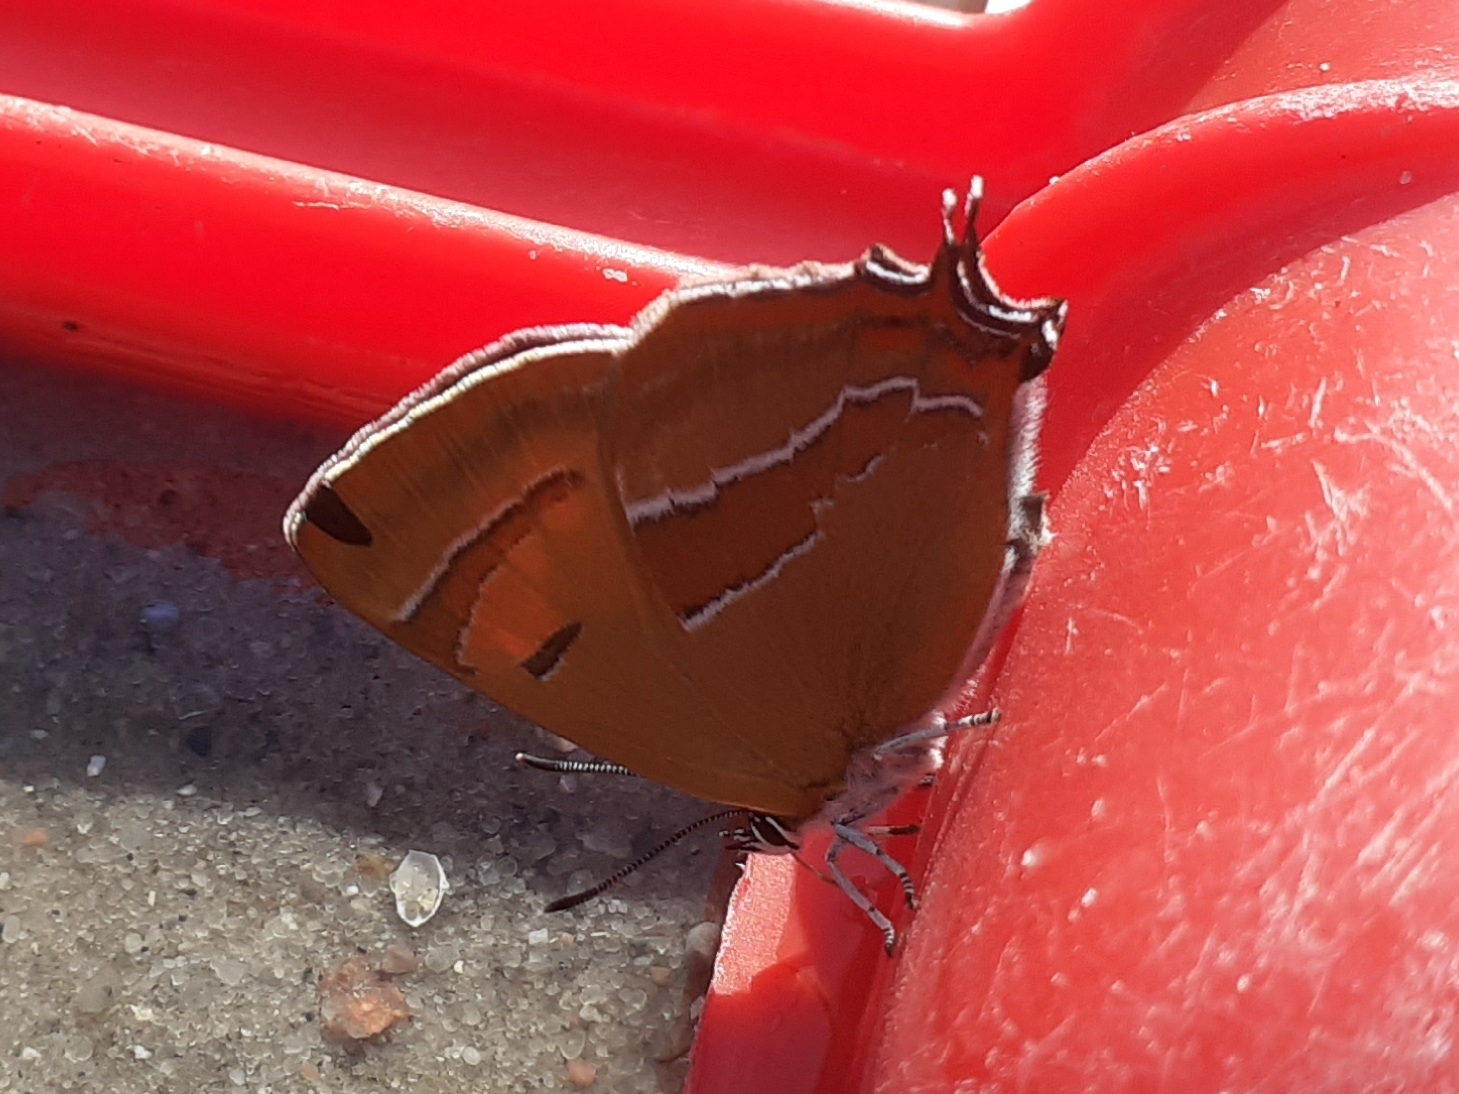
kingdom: Animalia
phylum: Arthropoda
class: Insecta
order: Lepidoptera
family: Lycaenidae
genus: Thecla
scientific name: Thecla betulae
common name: Guldhale
